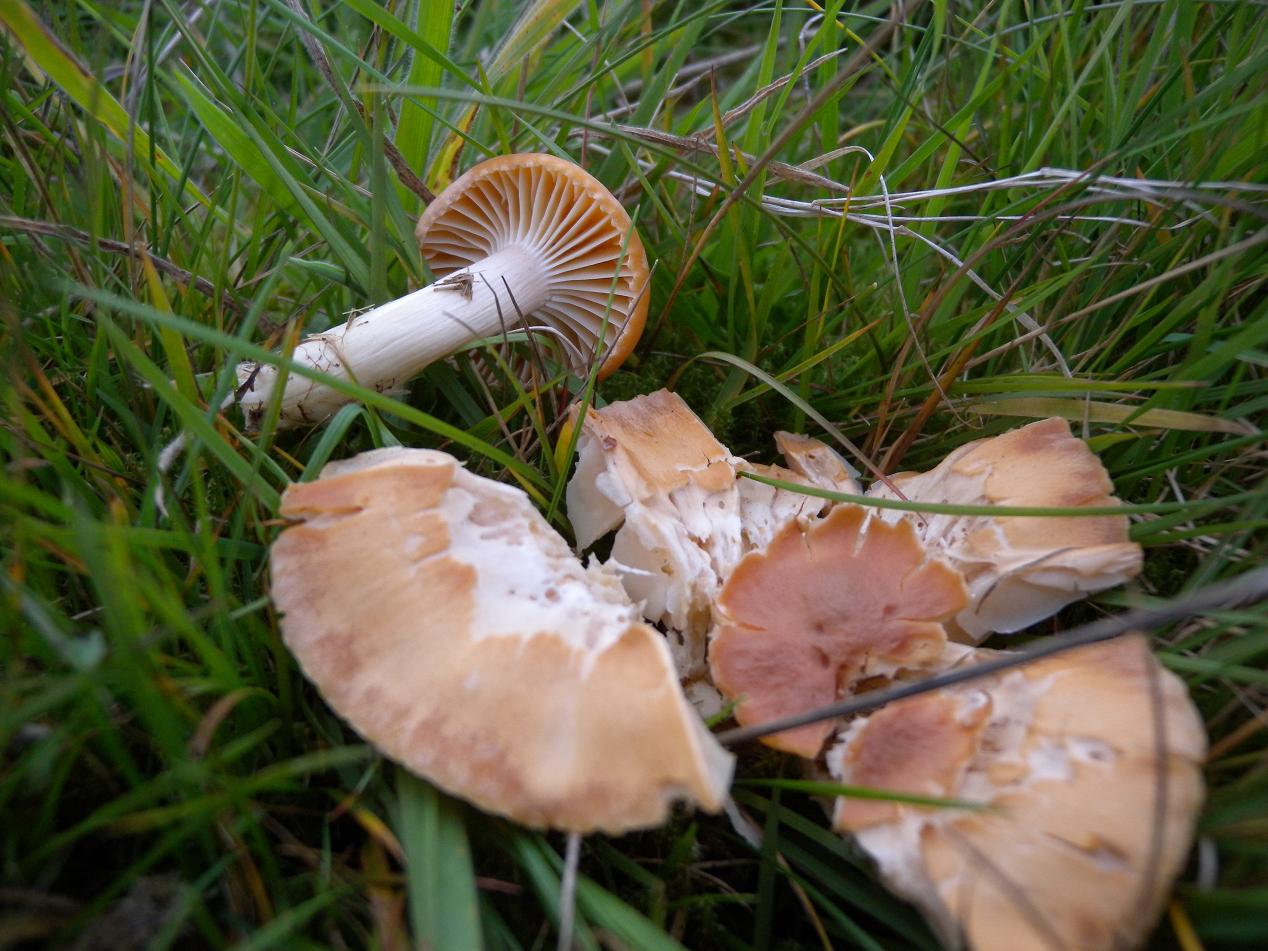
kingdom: Fungi
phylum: Basidiomycota
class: Agaricomycetes
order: Agaricales
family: Hygrophoraceae
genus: Cuphophyllus
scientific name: Cuphophyllus pratensis
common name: eng-vokshat
